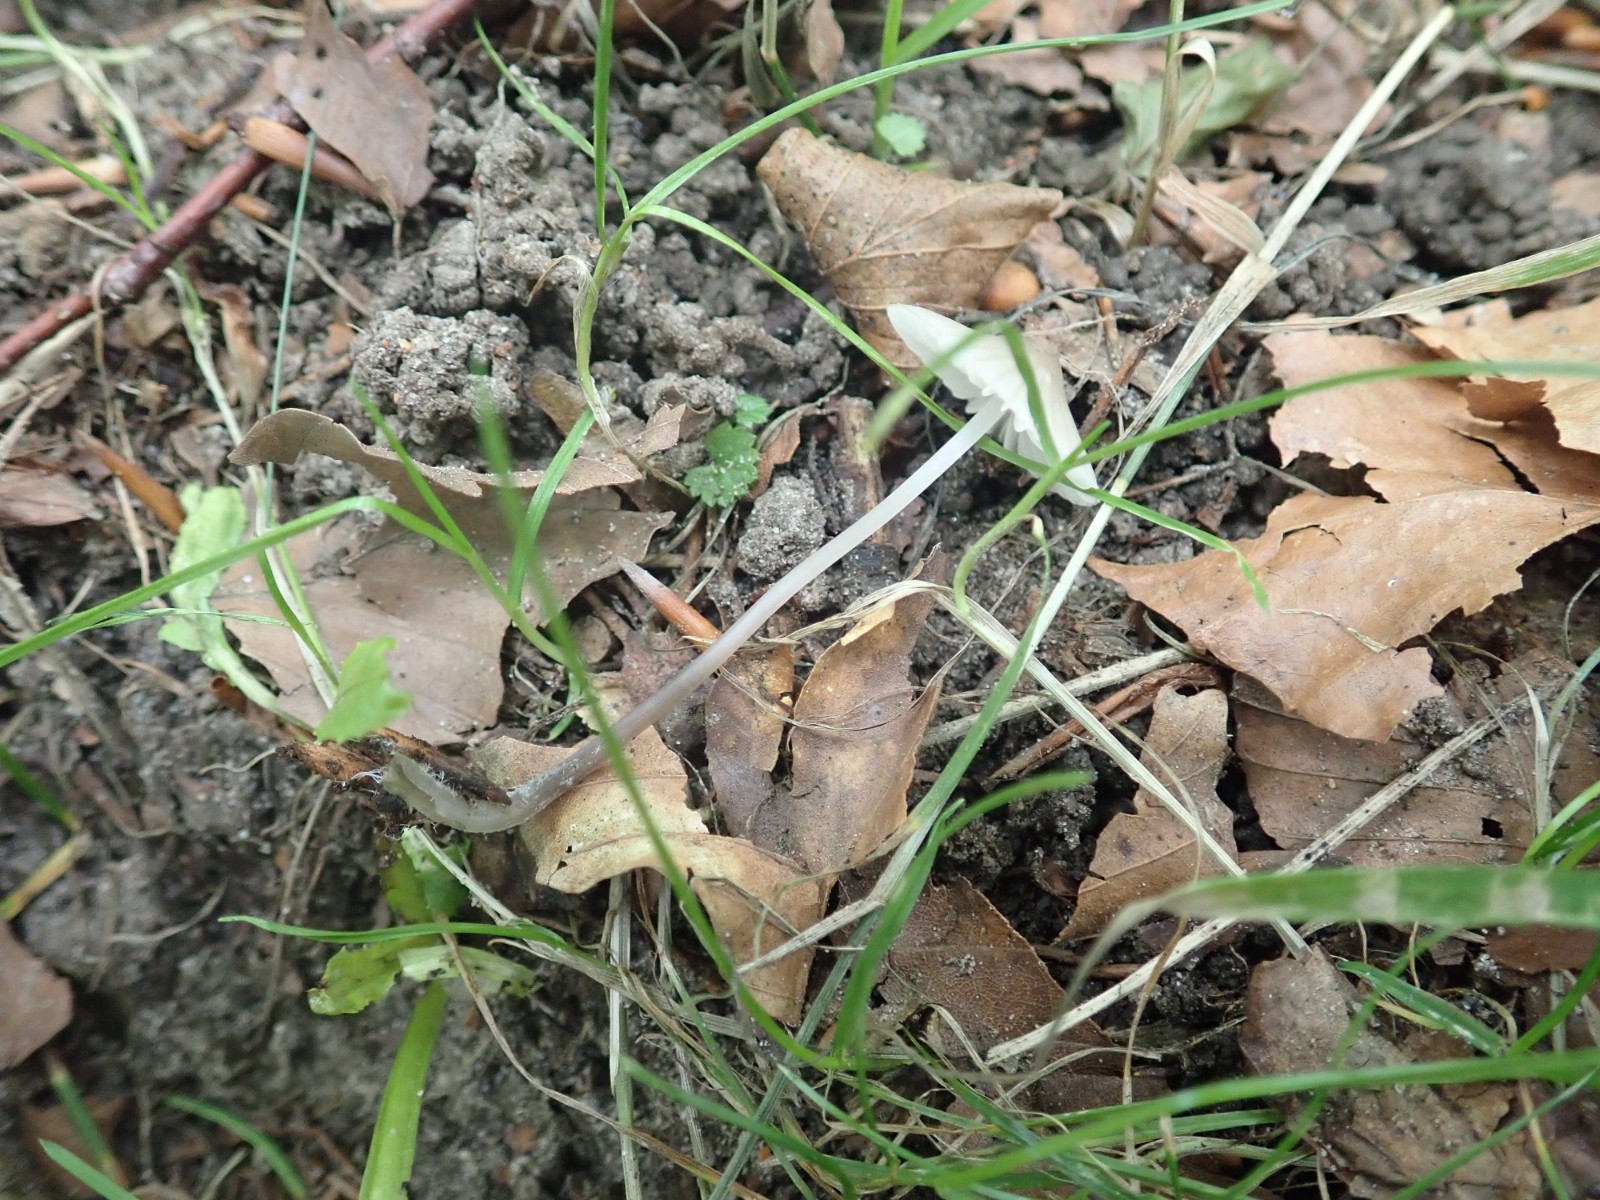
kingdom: Fungi
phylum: Basidiomycota
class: Agaricomycetes
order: Agaricales
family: Mycenaceae
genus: Mycena
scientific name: Mycena abramsii
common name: sommer-huesvamp
